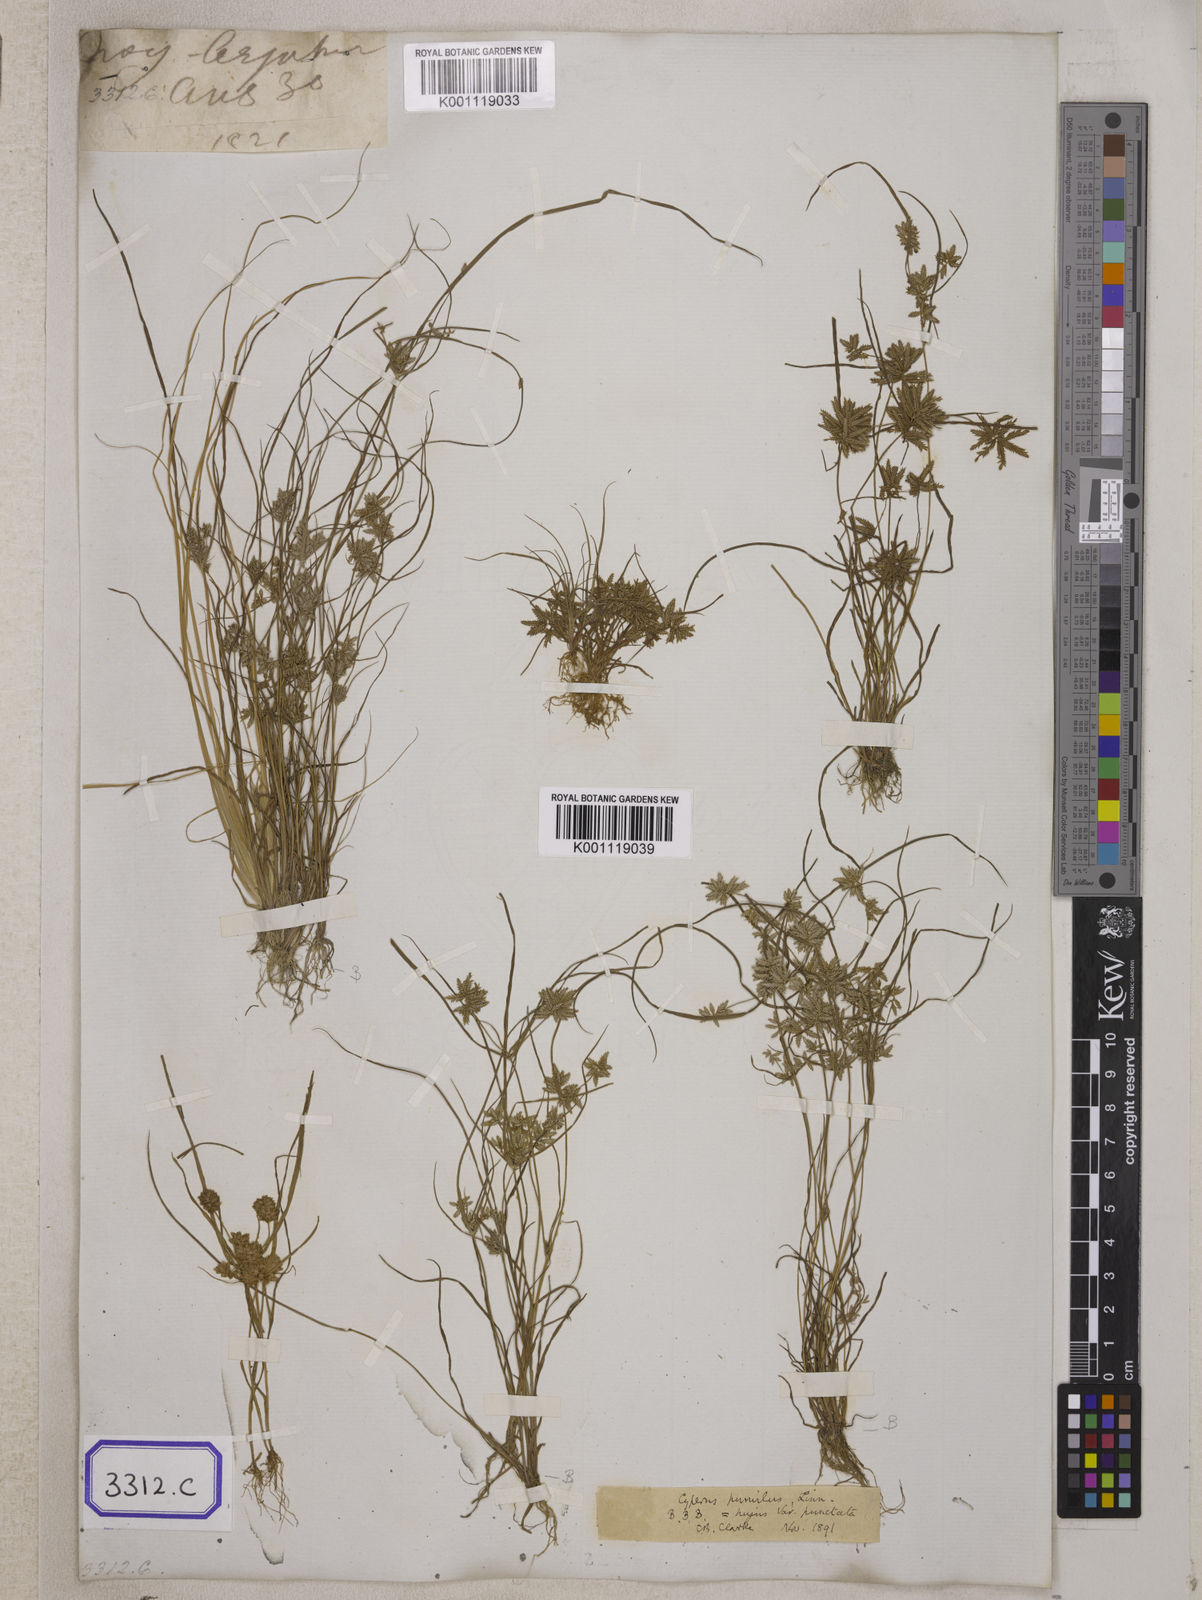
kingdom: Plantae
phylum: Tracheophyta
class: Liliopsida
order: Poales
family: Cyperaceae
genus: Cyperus
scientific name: Cyperus
